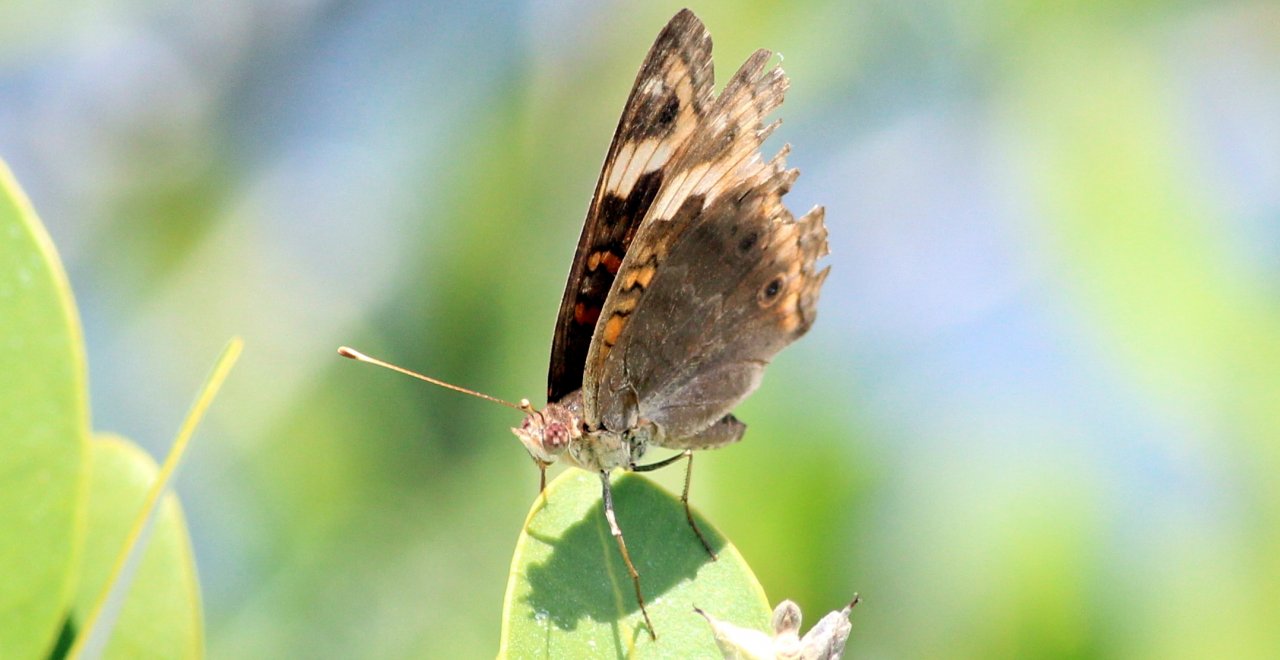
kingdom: Animalia
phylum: Arthropoda
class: Insecta
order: Lepidoptera
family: Nymphalidae
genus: Junonia
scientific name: Junonia coenia
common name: Common Buckeye
